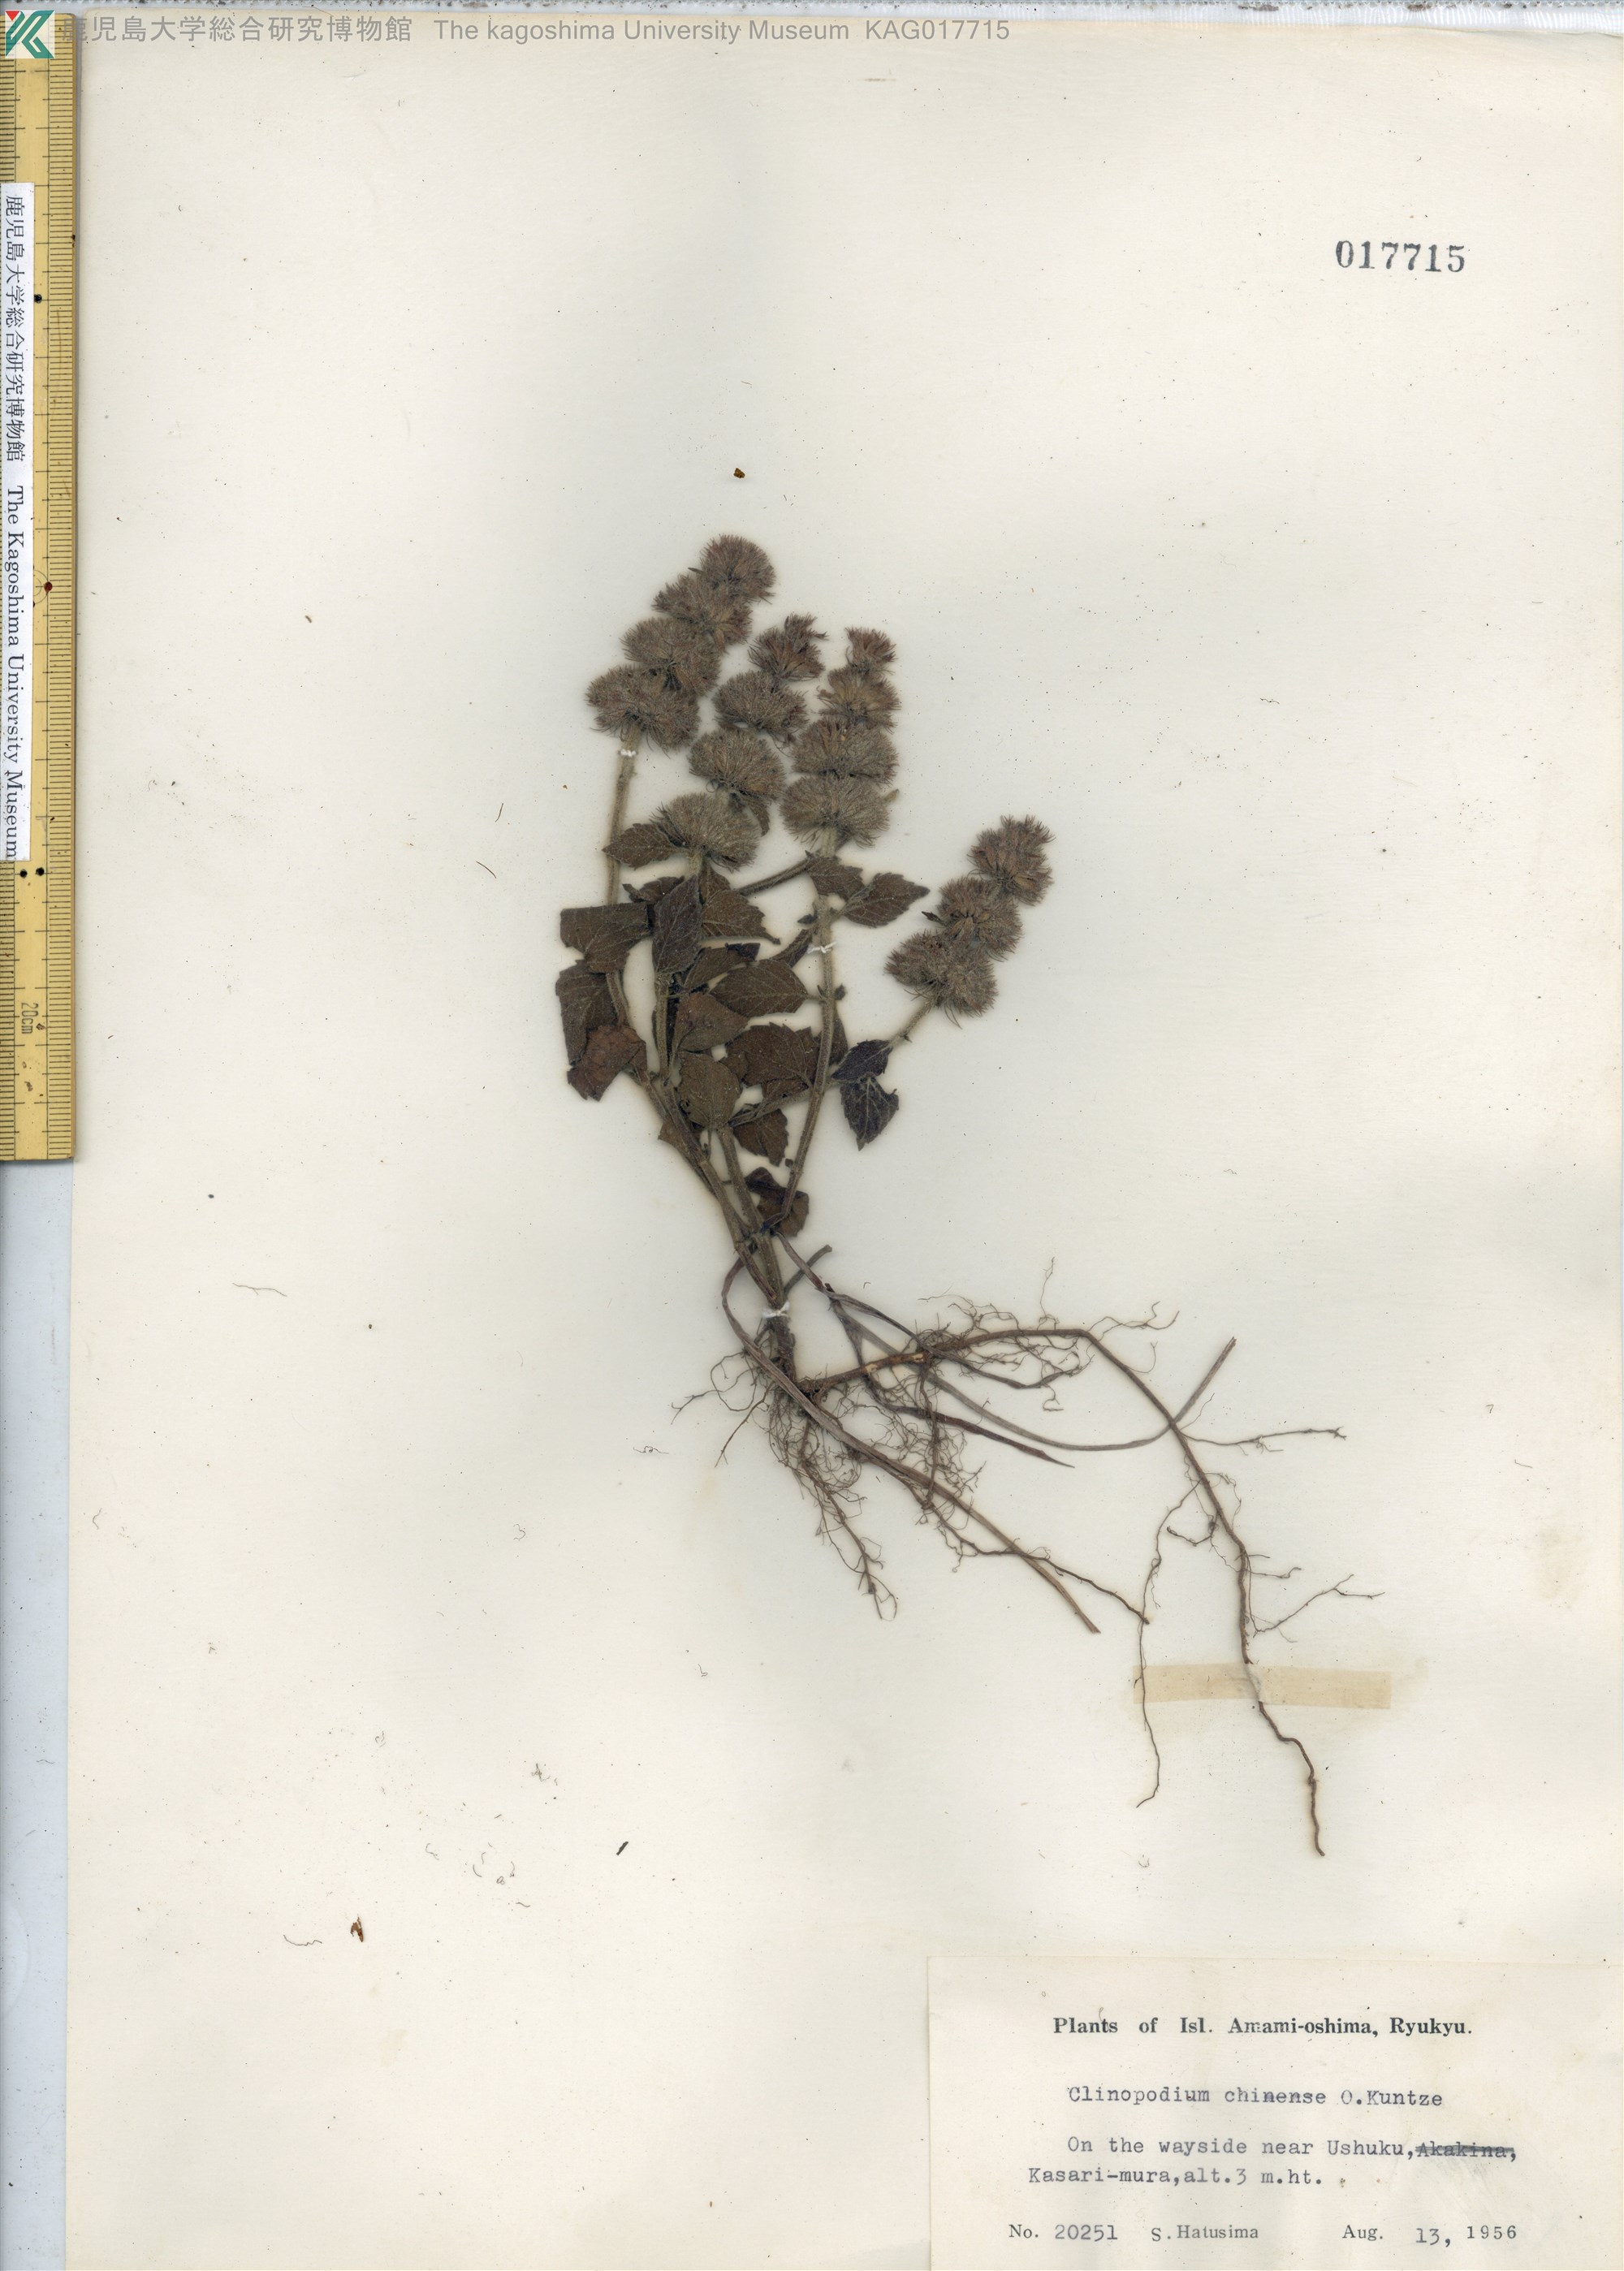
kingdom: Plantae
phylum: Tracheophyta
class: Magnoliopsida
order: Lamiales
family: Lamiaceae
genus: Clinopodium
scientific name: Clinopodium chinense
